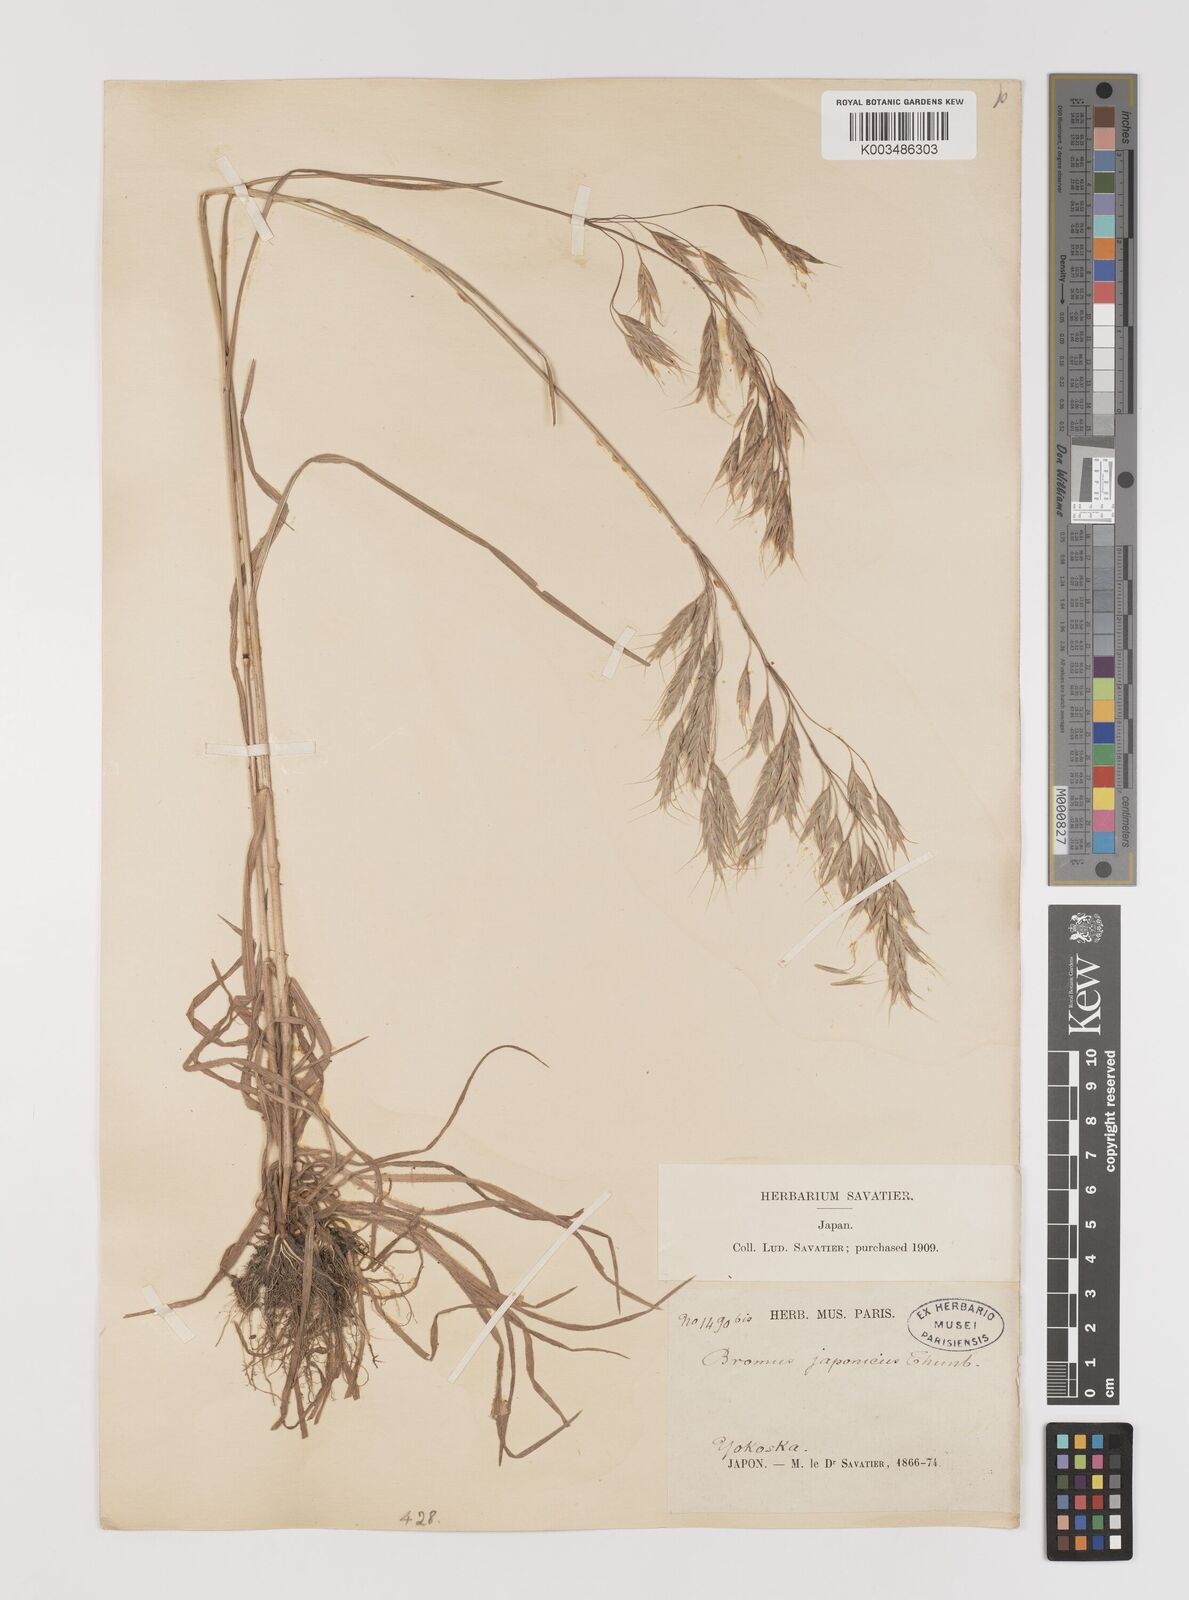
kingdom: Plantae
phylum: Tracheophyta
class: Liliopsida
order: Poales
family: Poaceae
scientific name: Poaceae
